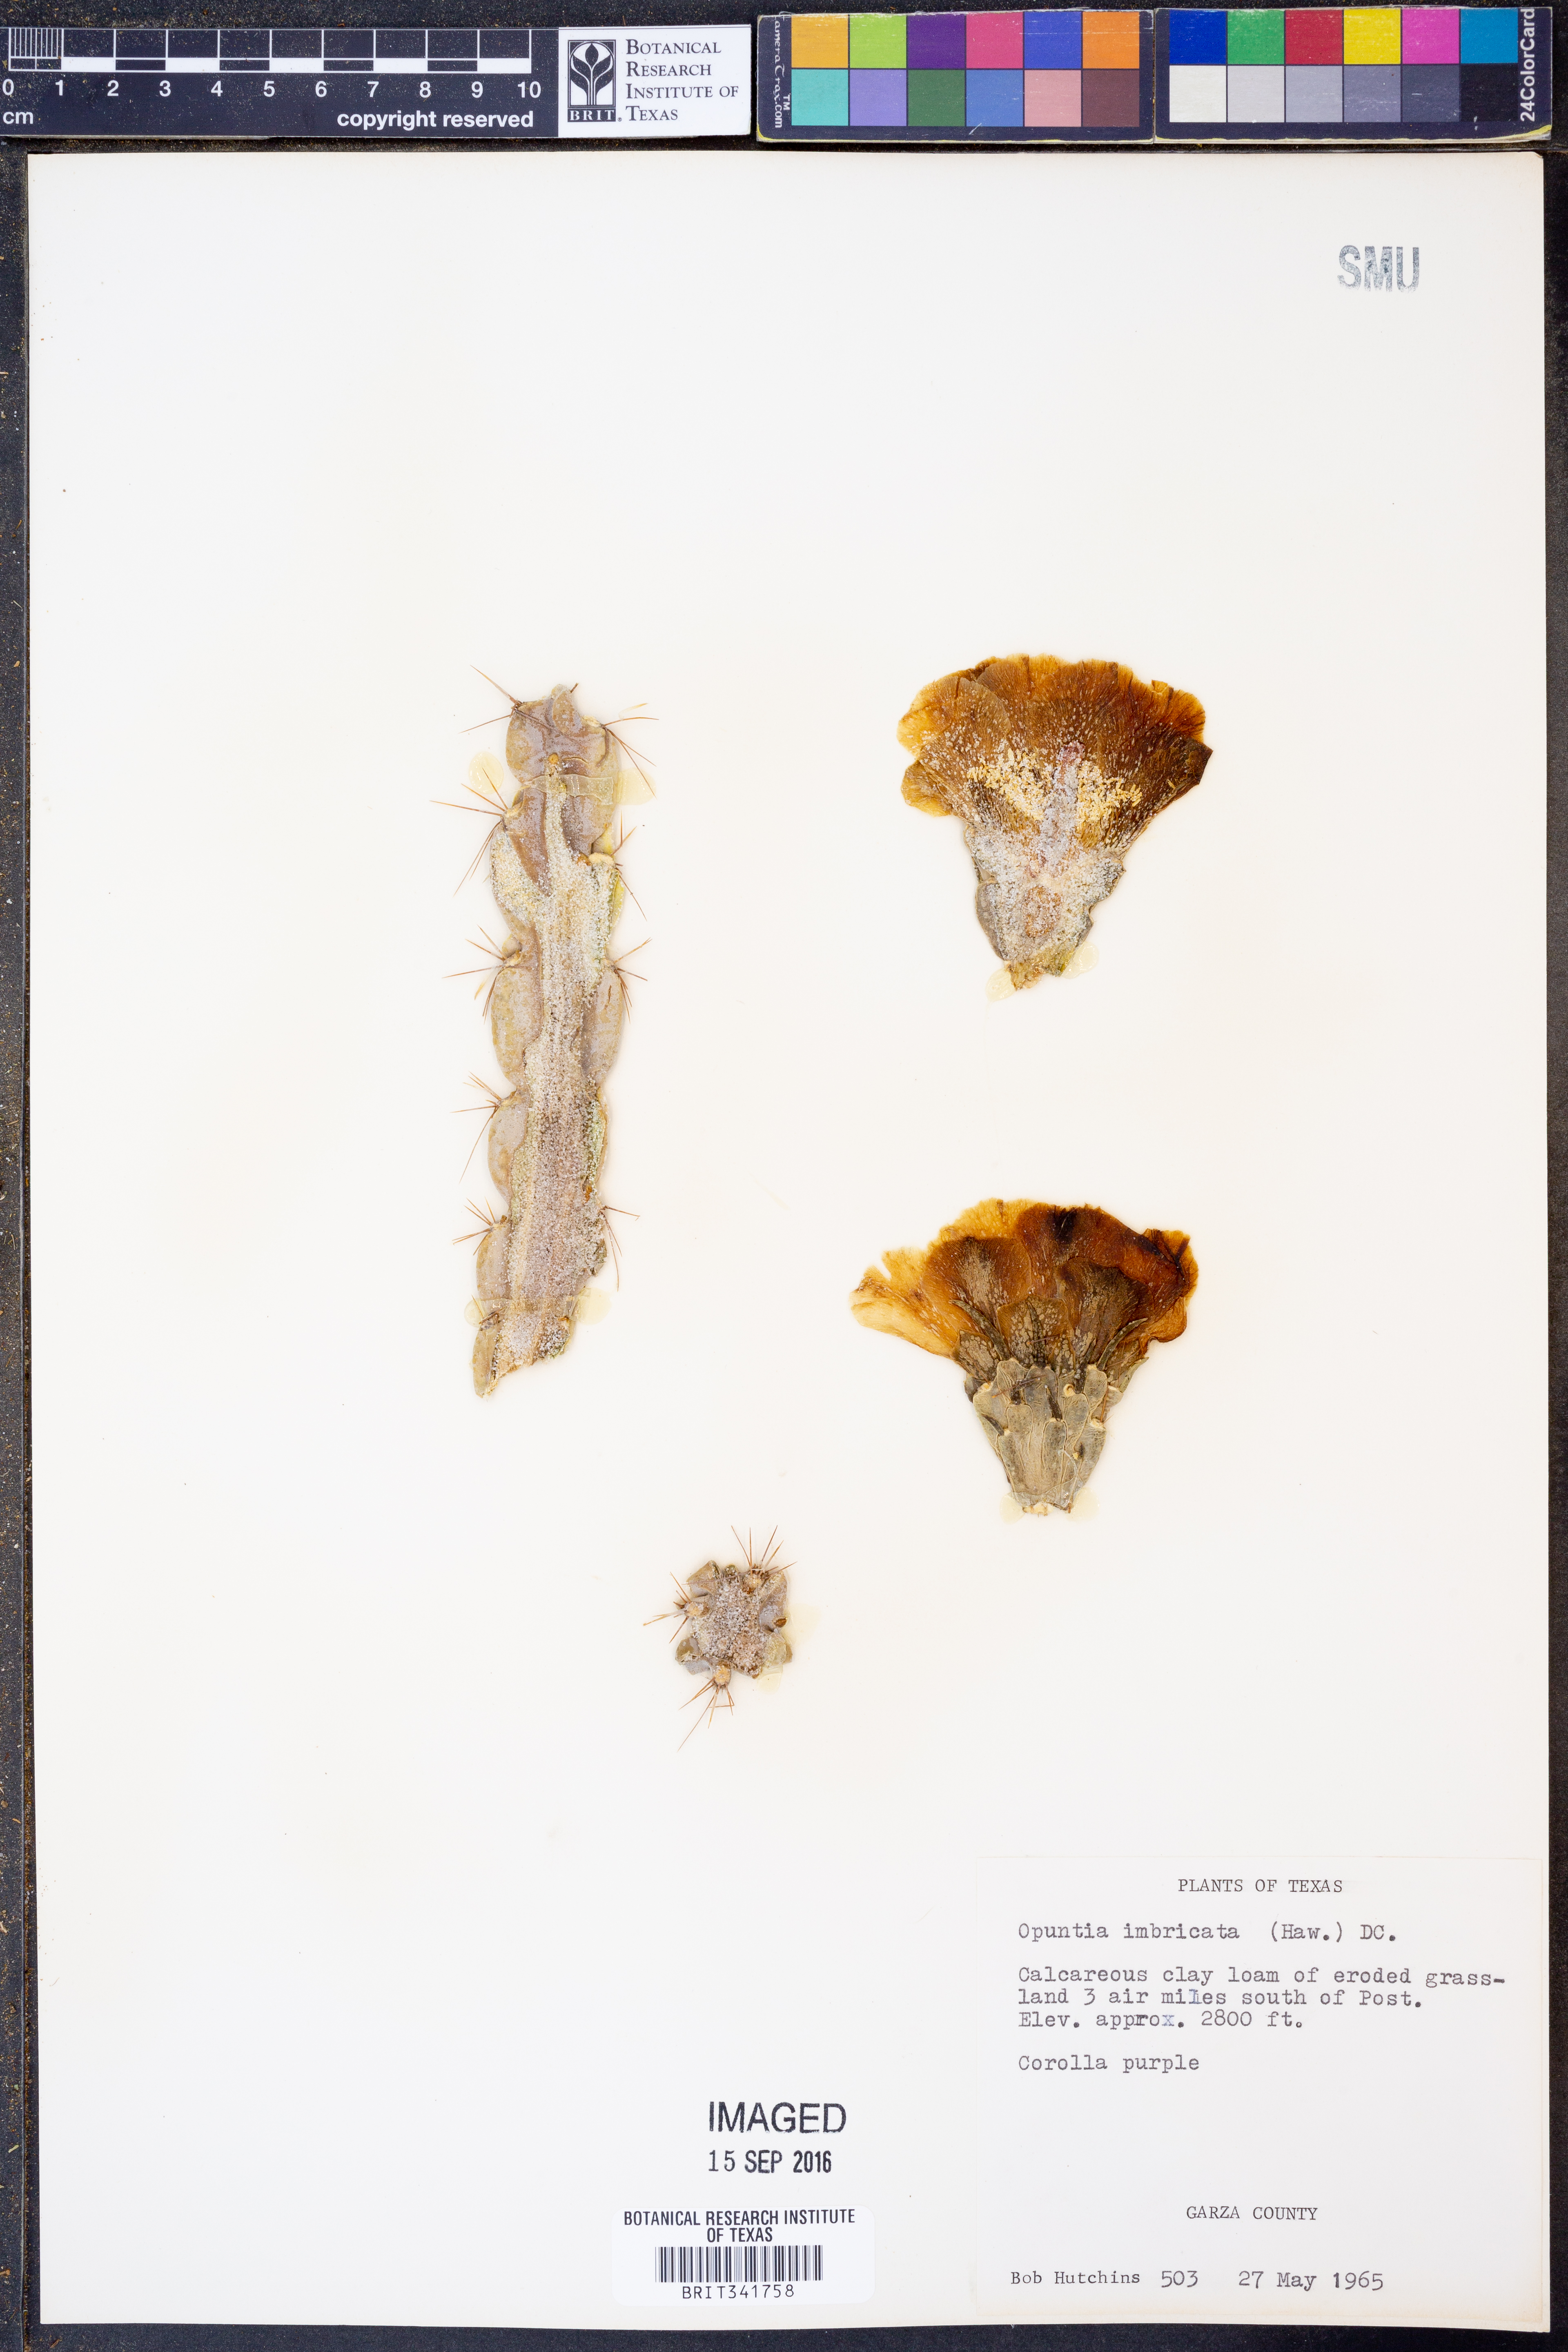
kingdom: Plantae
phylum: Tracheophyta
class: Magnoliopsida
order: Caryophyllales
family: Cactaceae
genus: Cylindropuntia
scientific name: Cylindropuntia imbricata
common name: Candelabrum cactus
